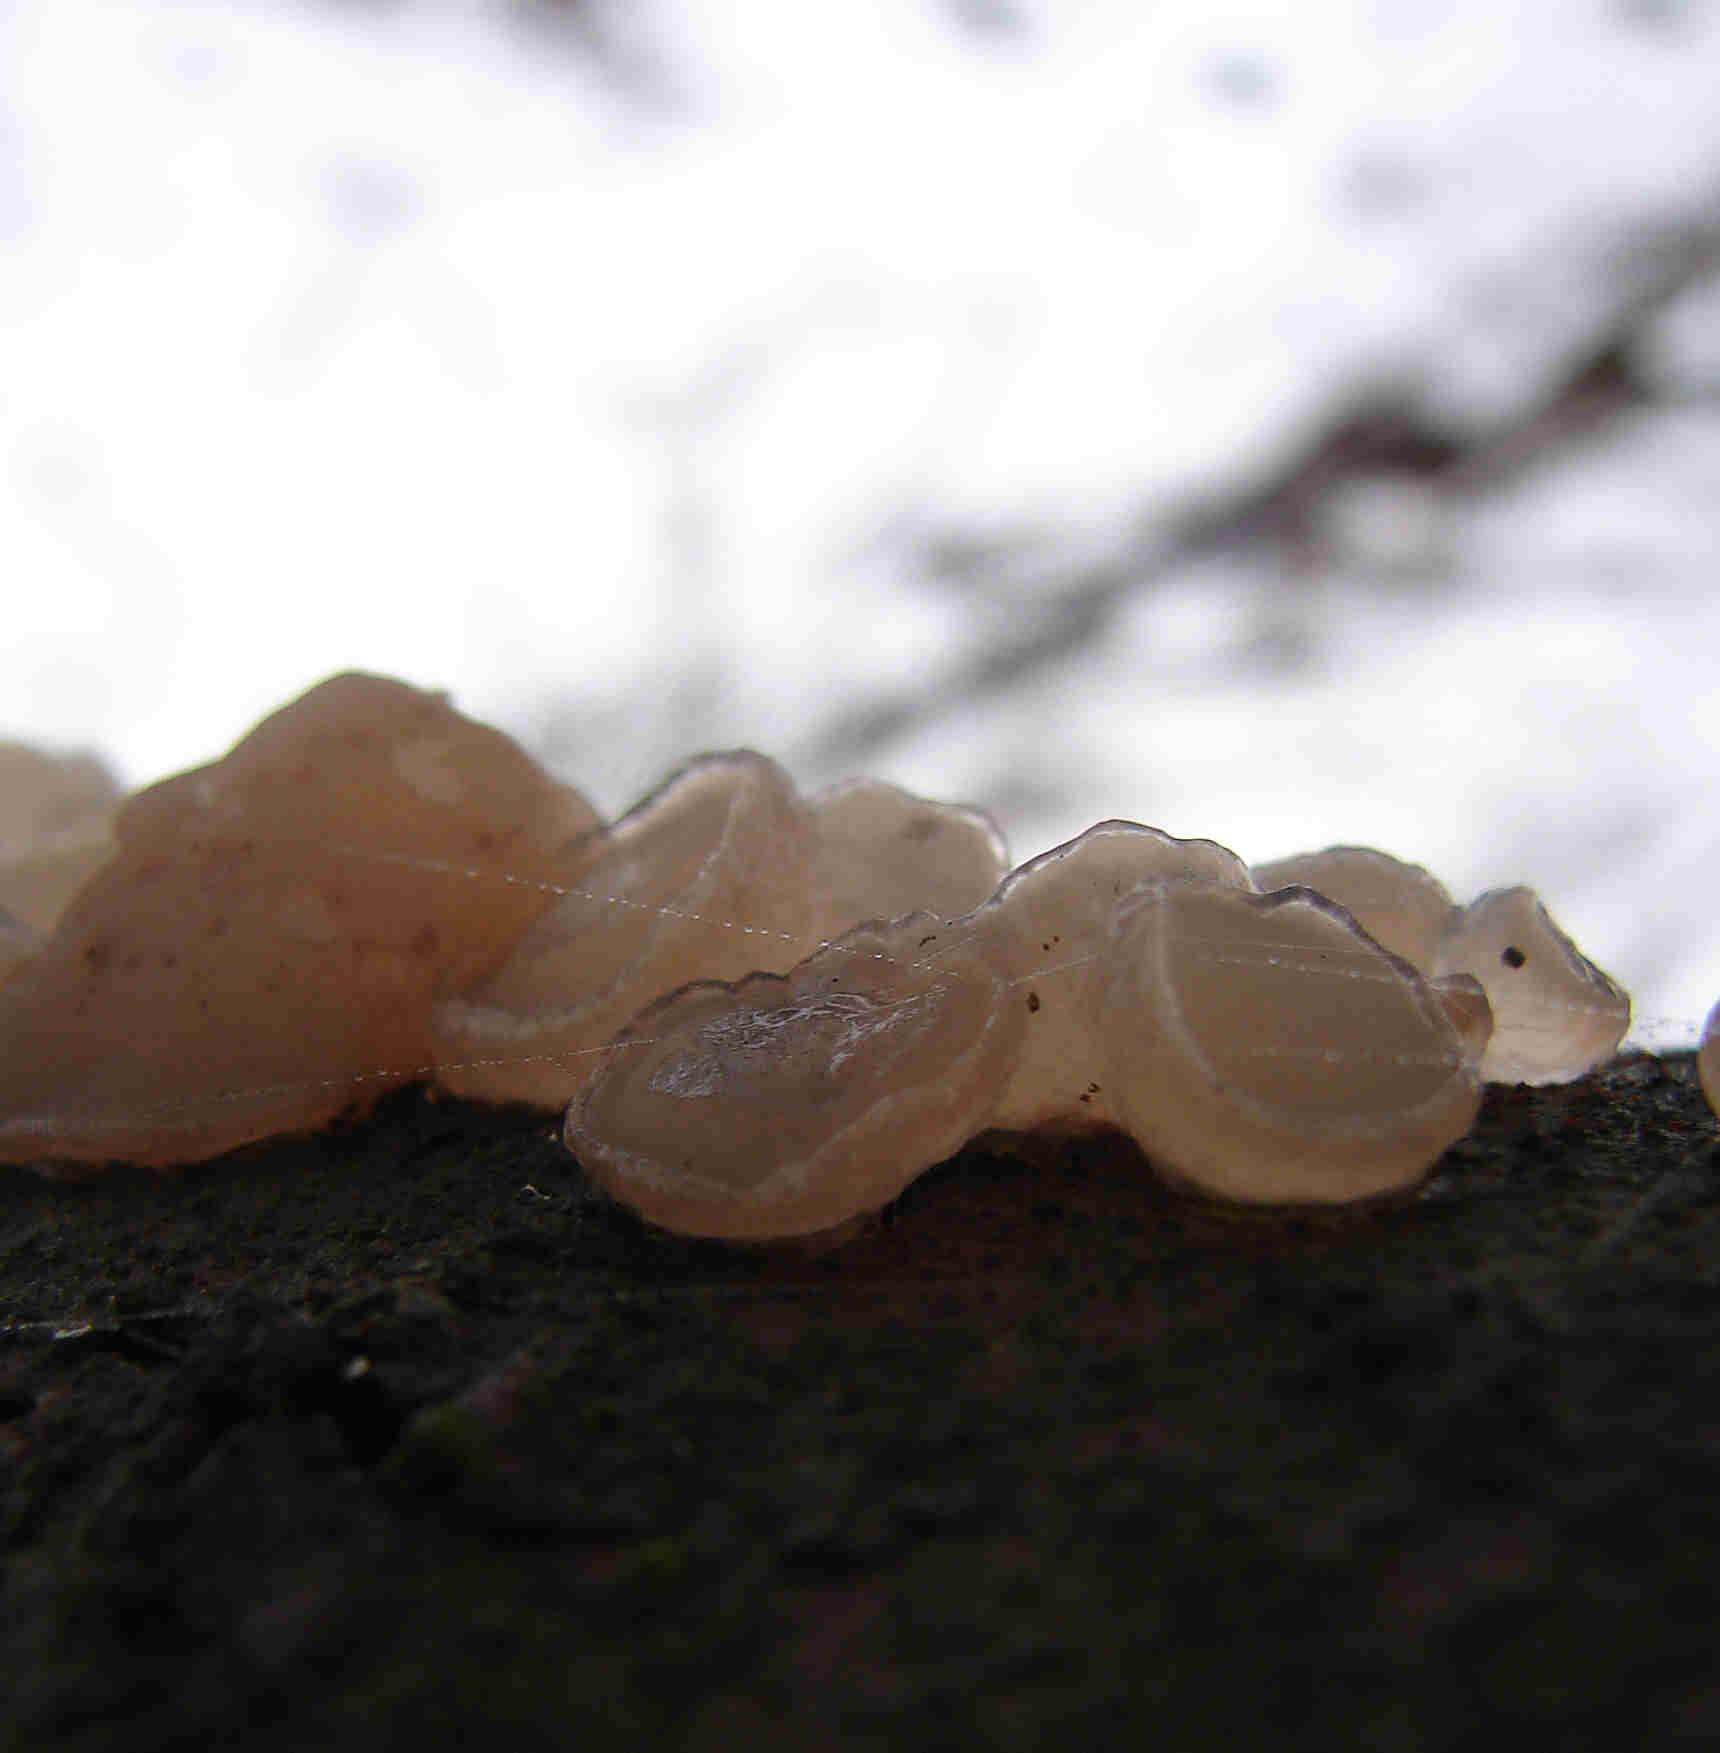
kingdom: Fungi
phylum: Ascomycota
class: Leotiomycetes
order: Helotiales
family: Gelatinodiscaceae
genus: Neobulgaria
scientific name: Neobulgaria pura
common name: bleg bævreskive
